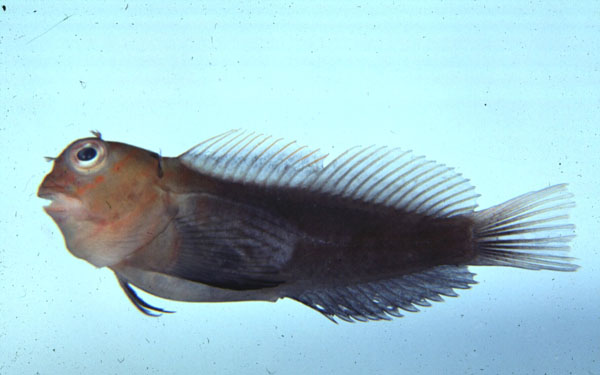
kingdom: Animalia
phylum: Chordata
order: Perciformes
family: Blenniidae
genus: Cirripectes
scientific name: Cirripectes castaneus
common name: Chestnut blenny
